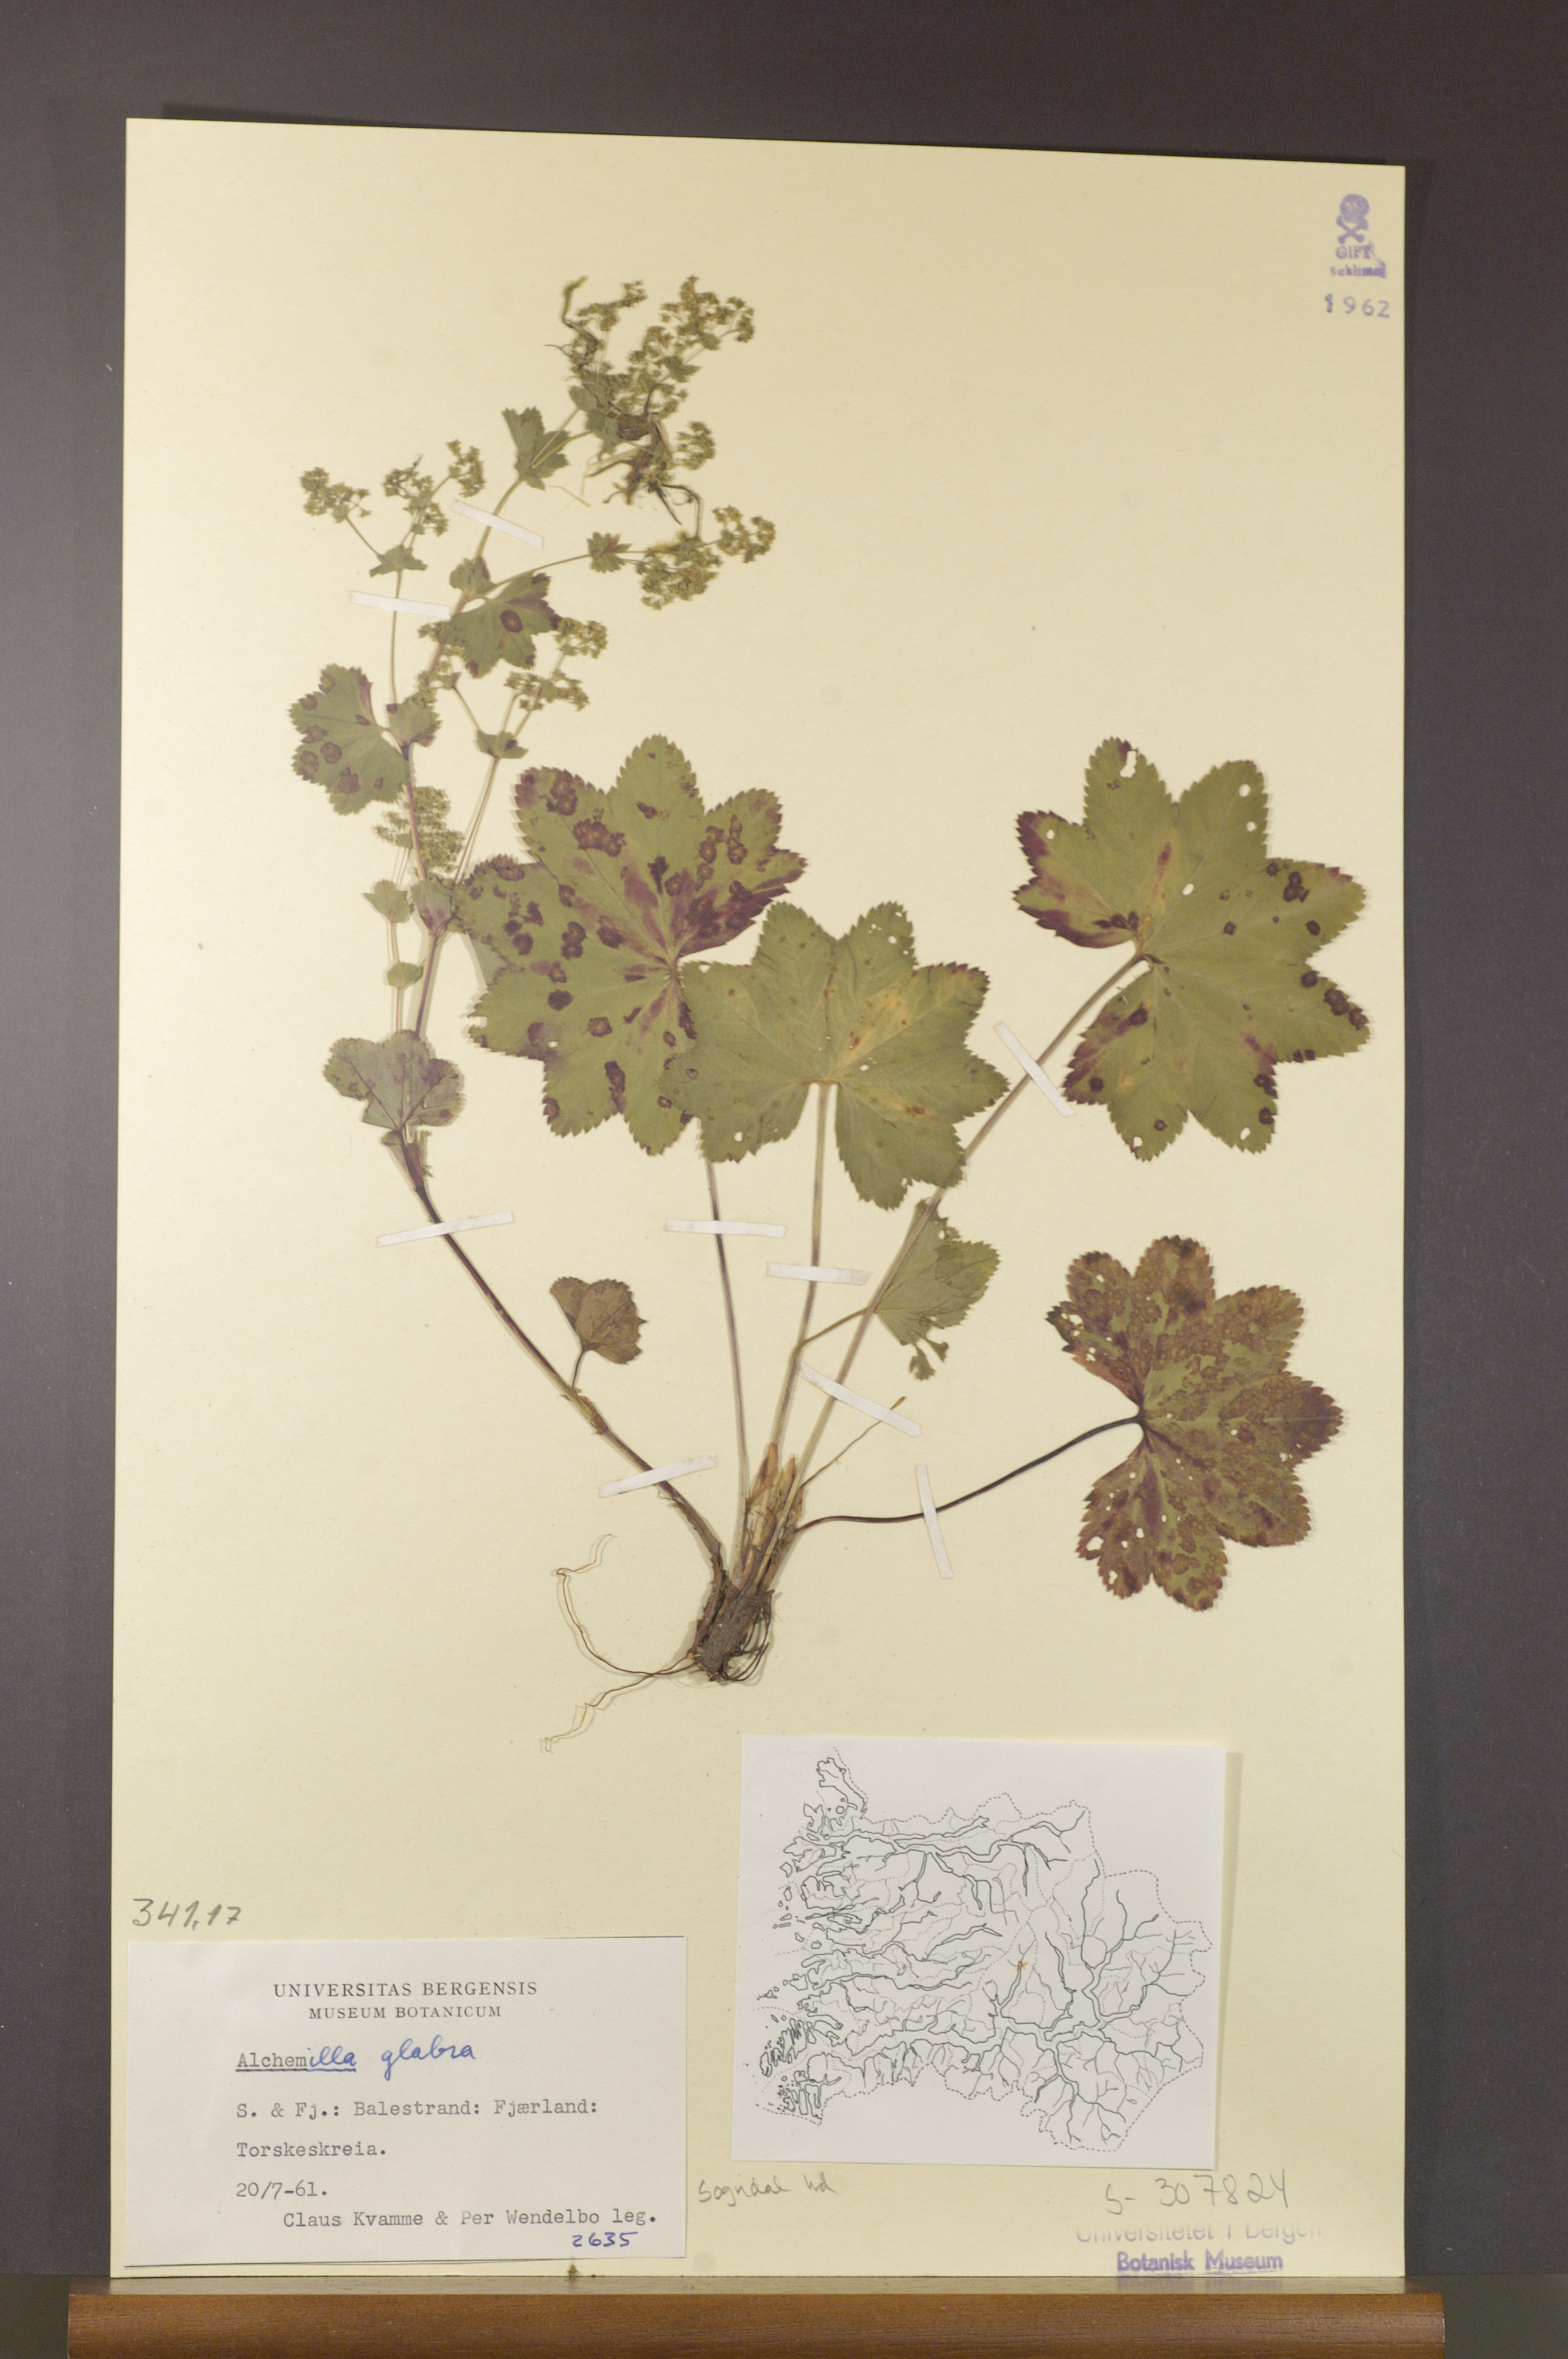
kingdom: Plantae
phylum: Tracheophyta
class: Magnoliopsida
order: Rosales
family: Rosaceae
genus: Alchemilla
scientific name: Alchemilla glabra
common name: Smooth lady's-mantle
